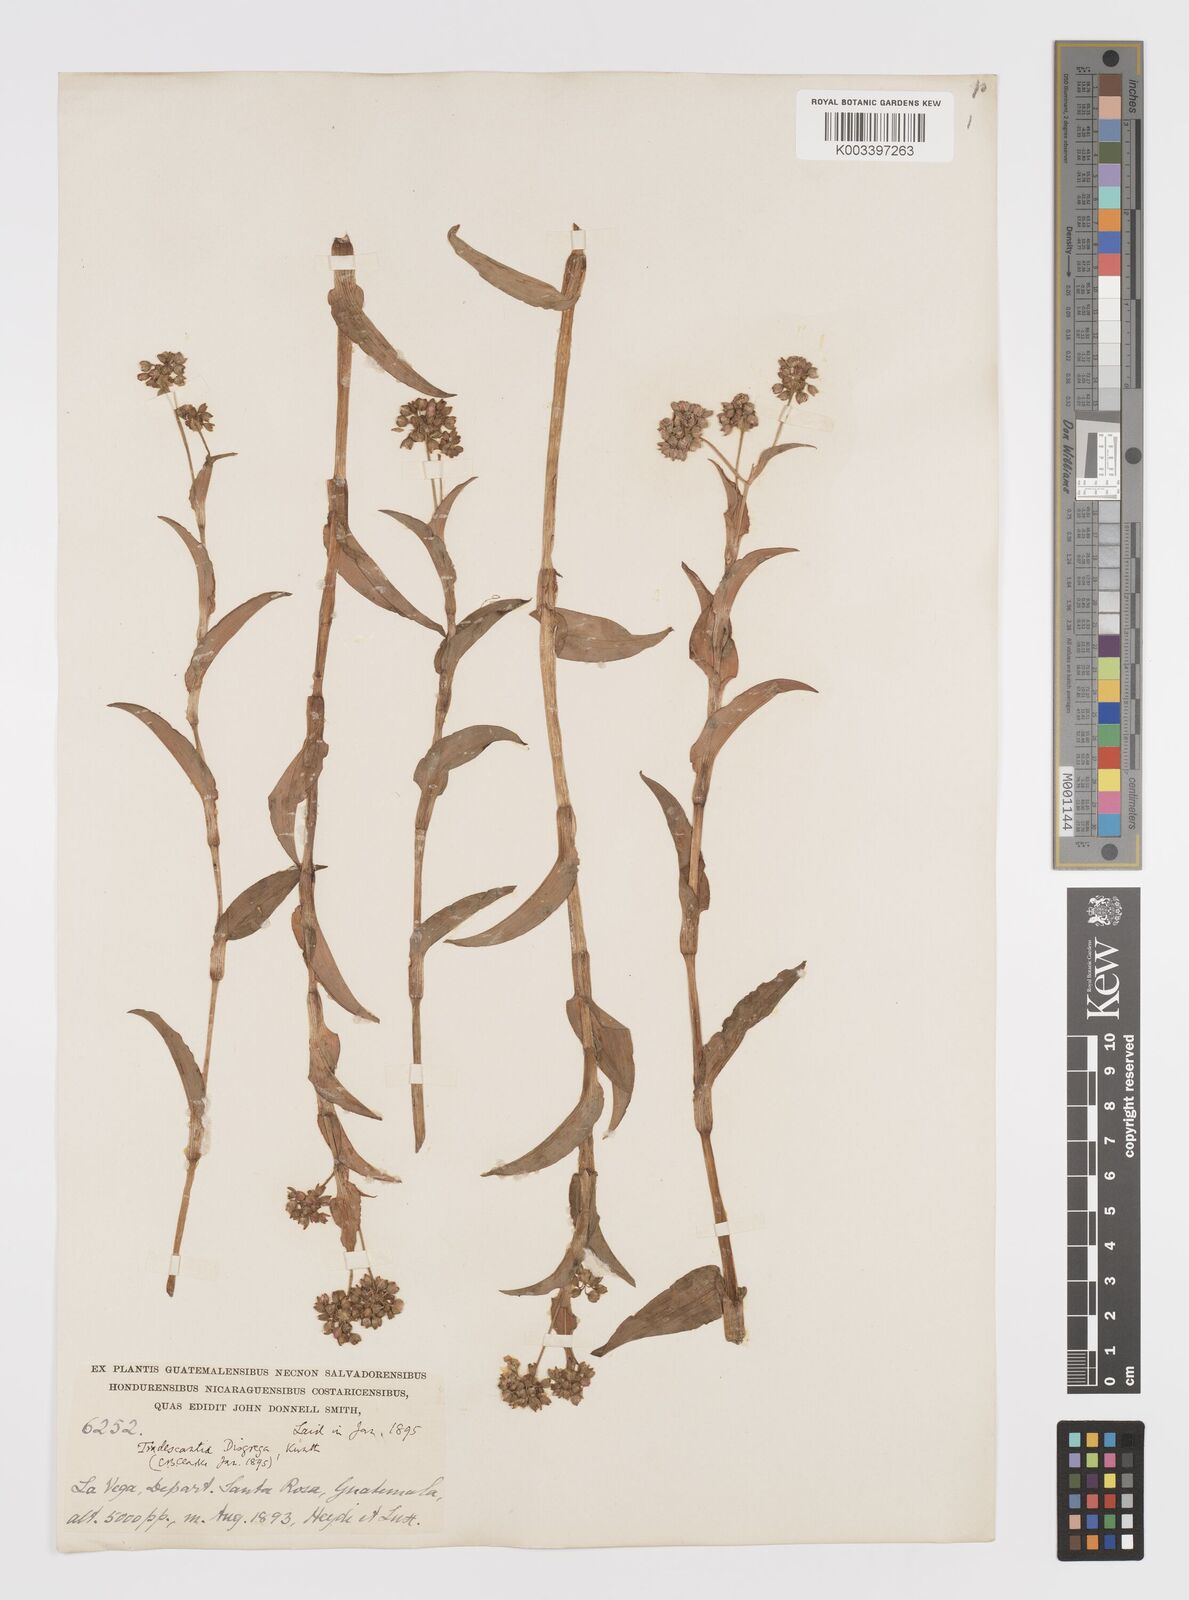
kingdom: Plantae
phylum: Tracheophyta
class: Liliopsida
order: Commelinales
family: Commelinaceae
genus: Callisia
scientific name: Callisia purpurascens
